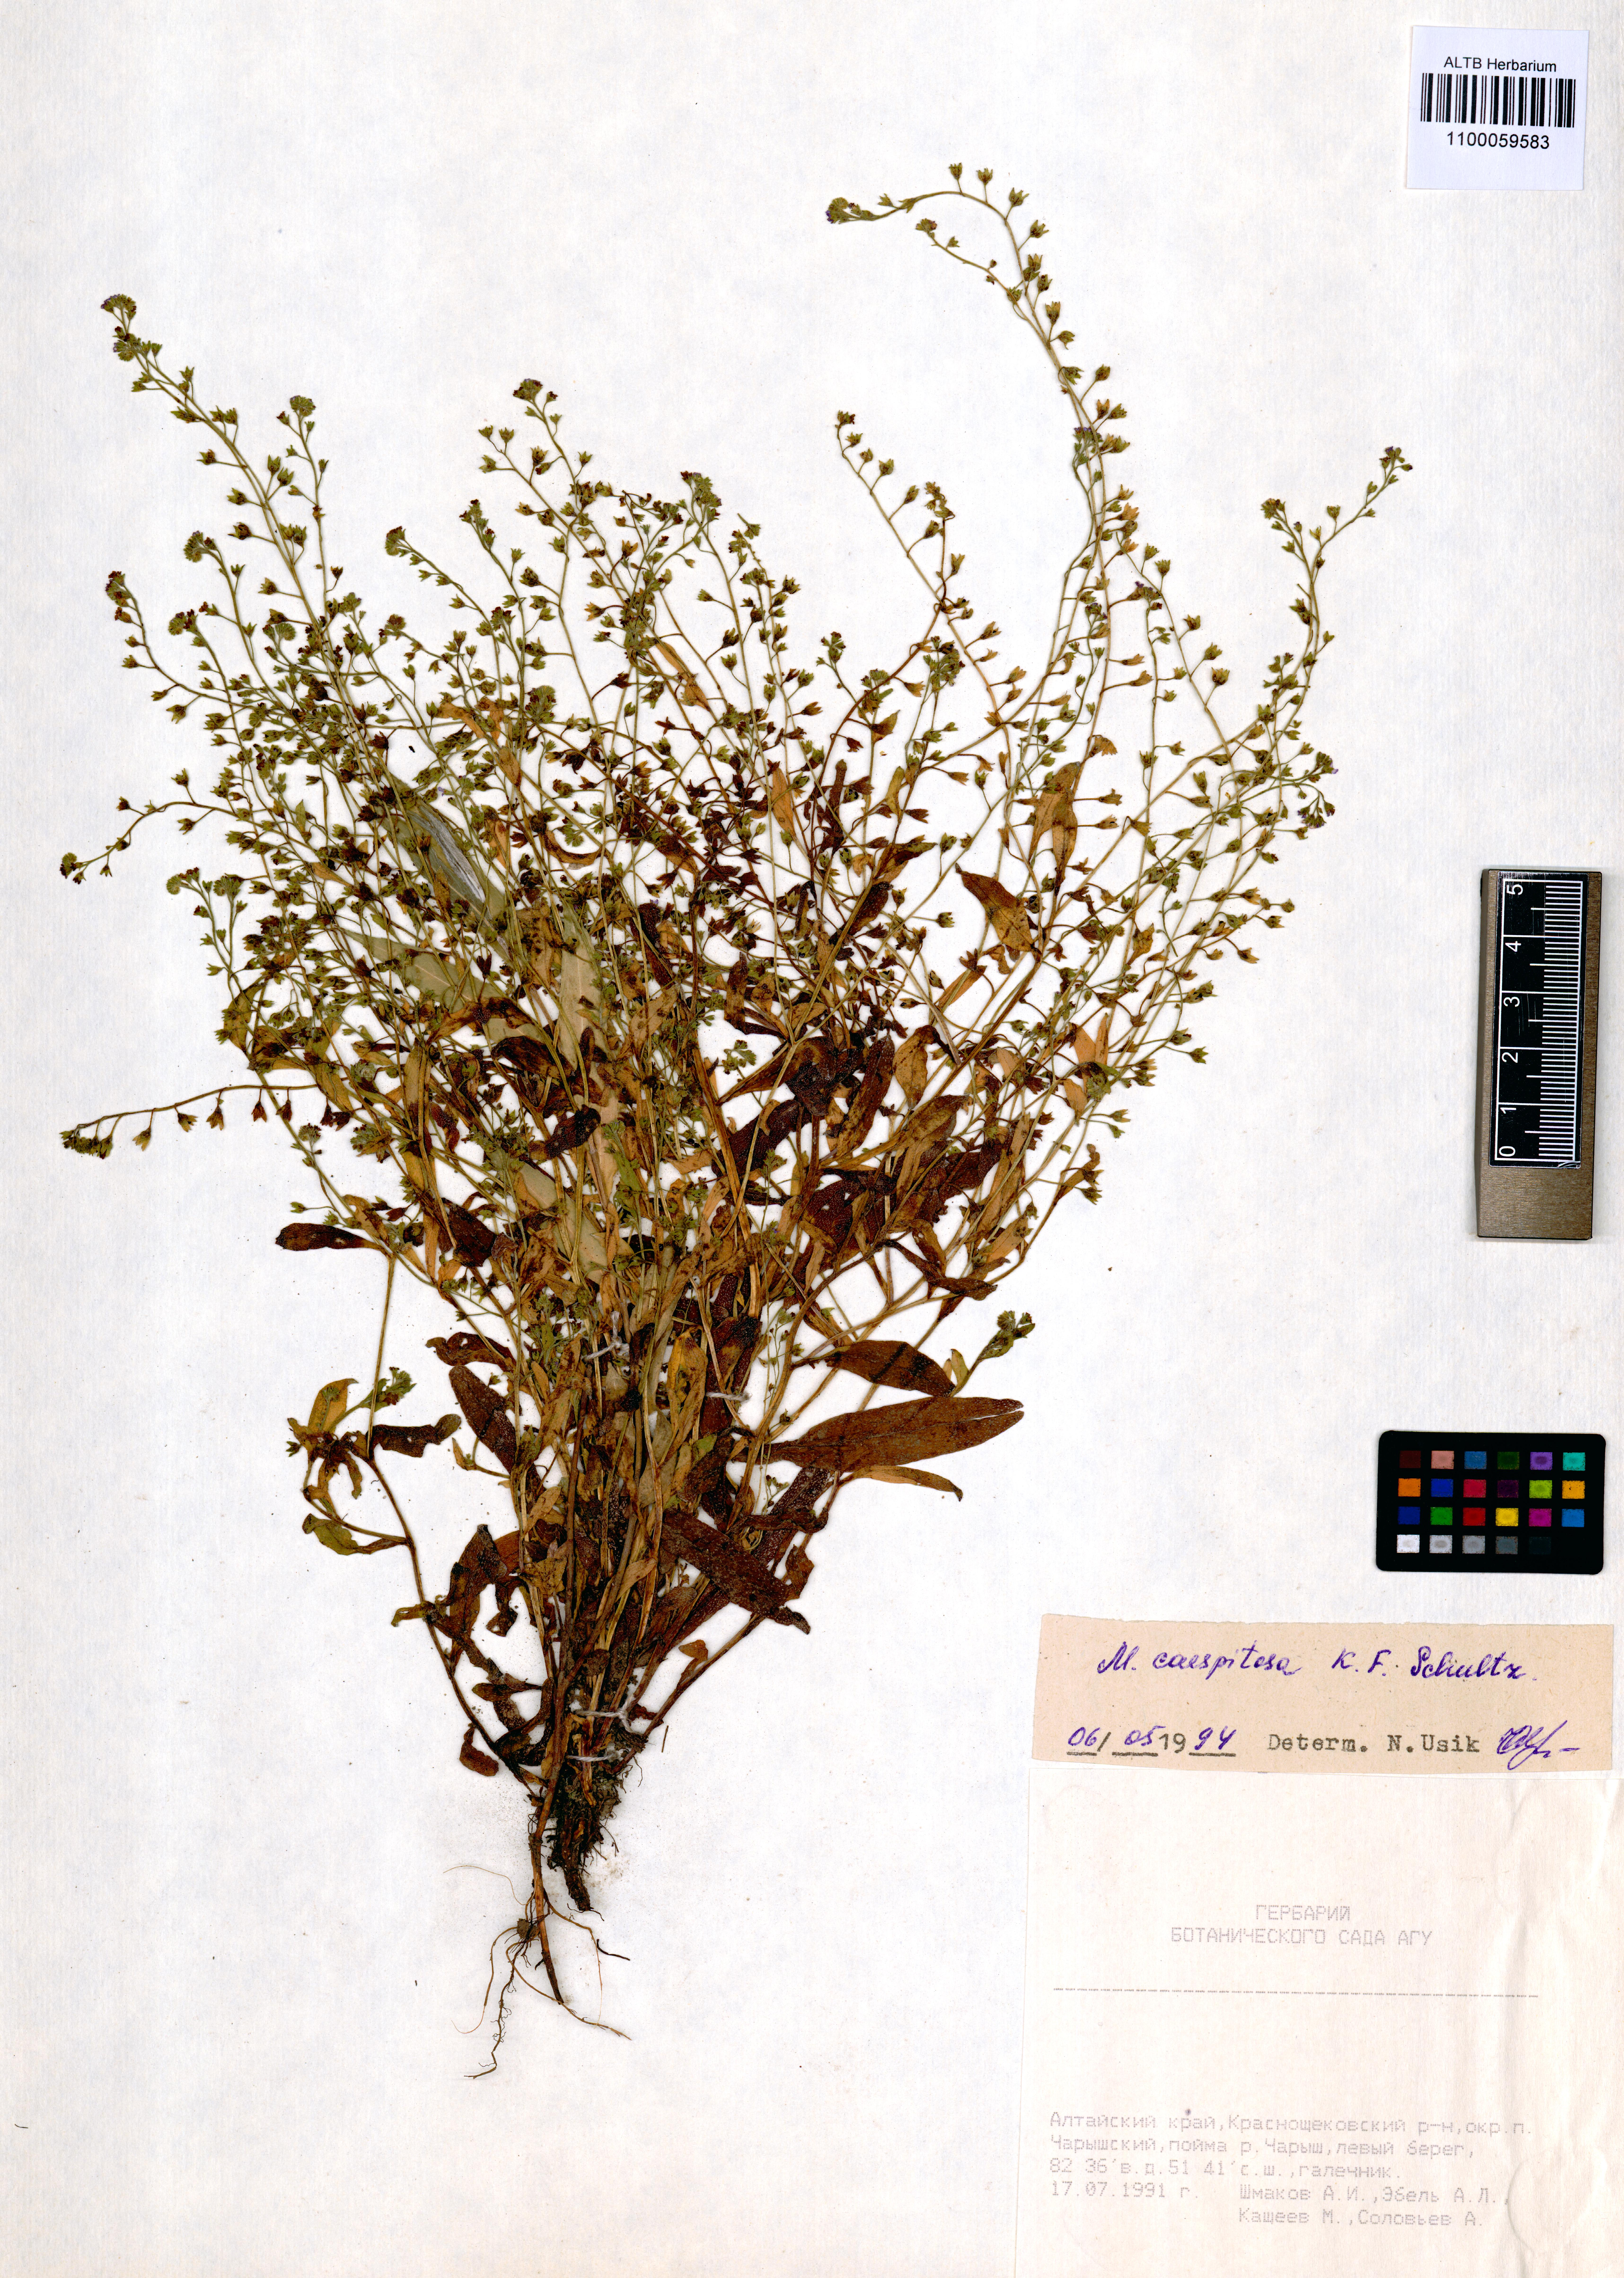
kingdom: Plantae
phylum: Tracheophyta
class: Magnoliopsida
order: Boraginales
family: Boraginaceae
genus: Myosotis
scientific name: Myosotis laxa
